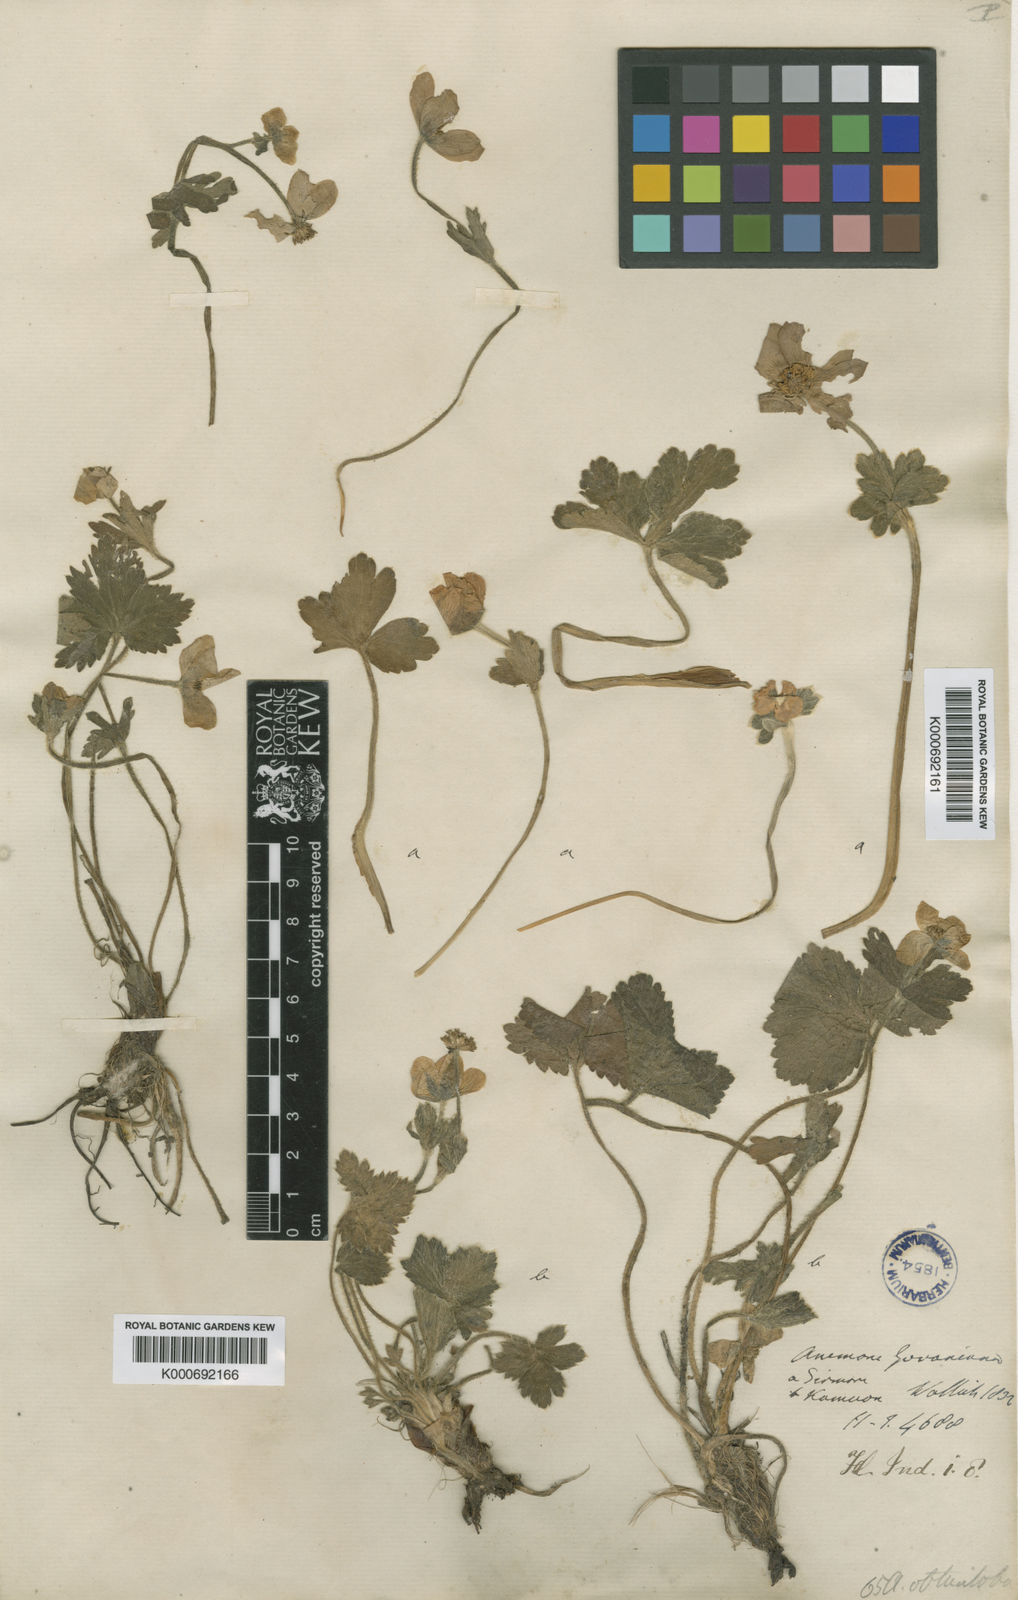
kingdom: Plantae
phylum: Tracheophyta
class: Magnoliopsida
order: Ranunculales
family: Ranunculaceae
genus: Anemonastrum
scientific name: Anemonastrum obtusilobum
